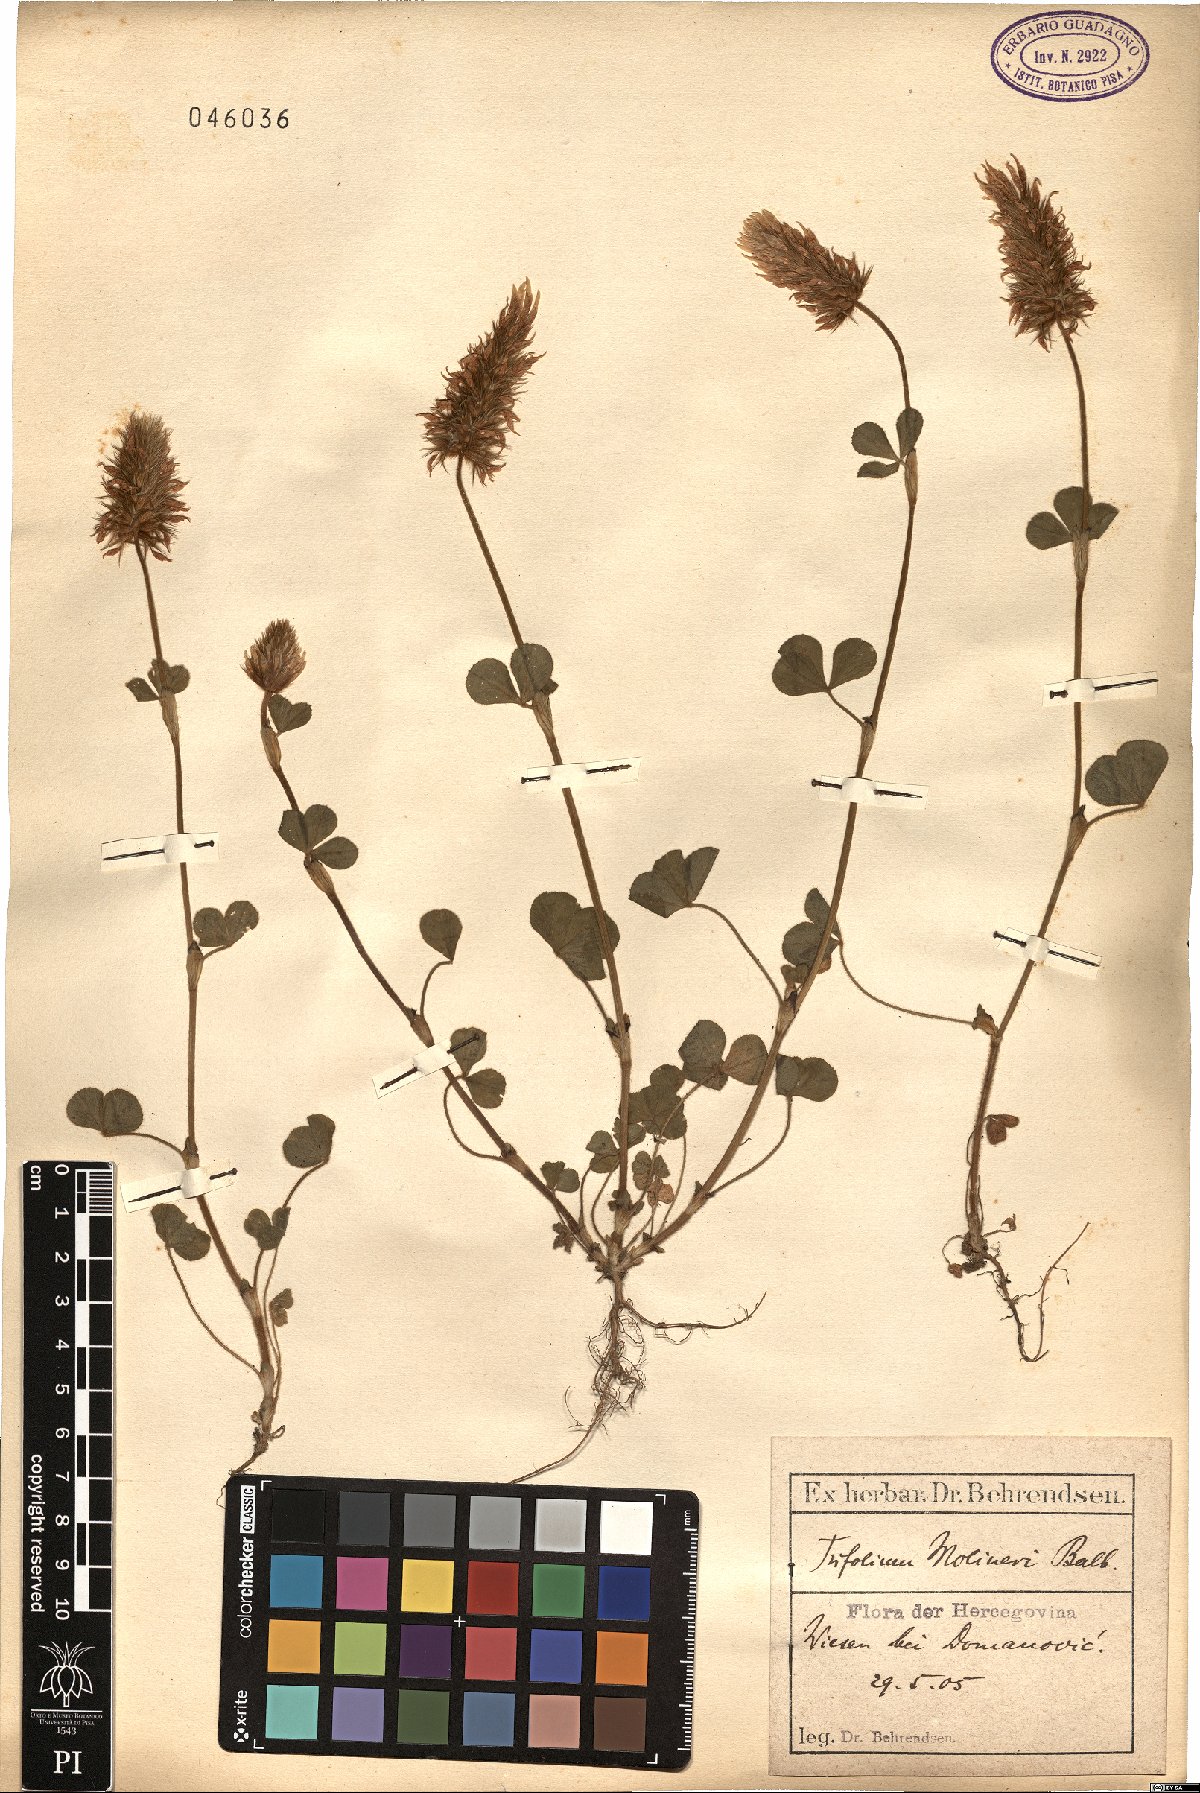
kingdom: Plantae
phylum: Tracheophyta
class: Magnoliopsida
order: Fabales
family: Fabaceae
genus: Trifolium
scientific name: Trifolium incarnatum
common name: Crimson clover
